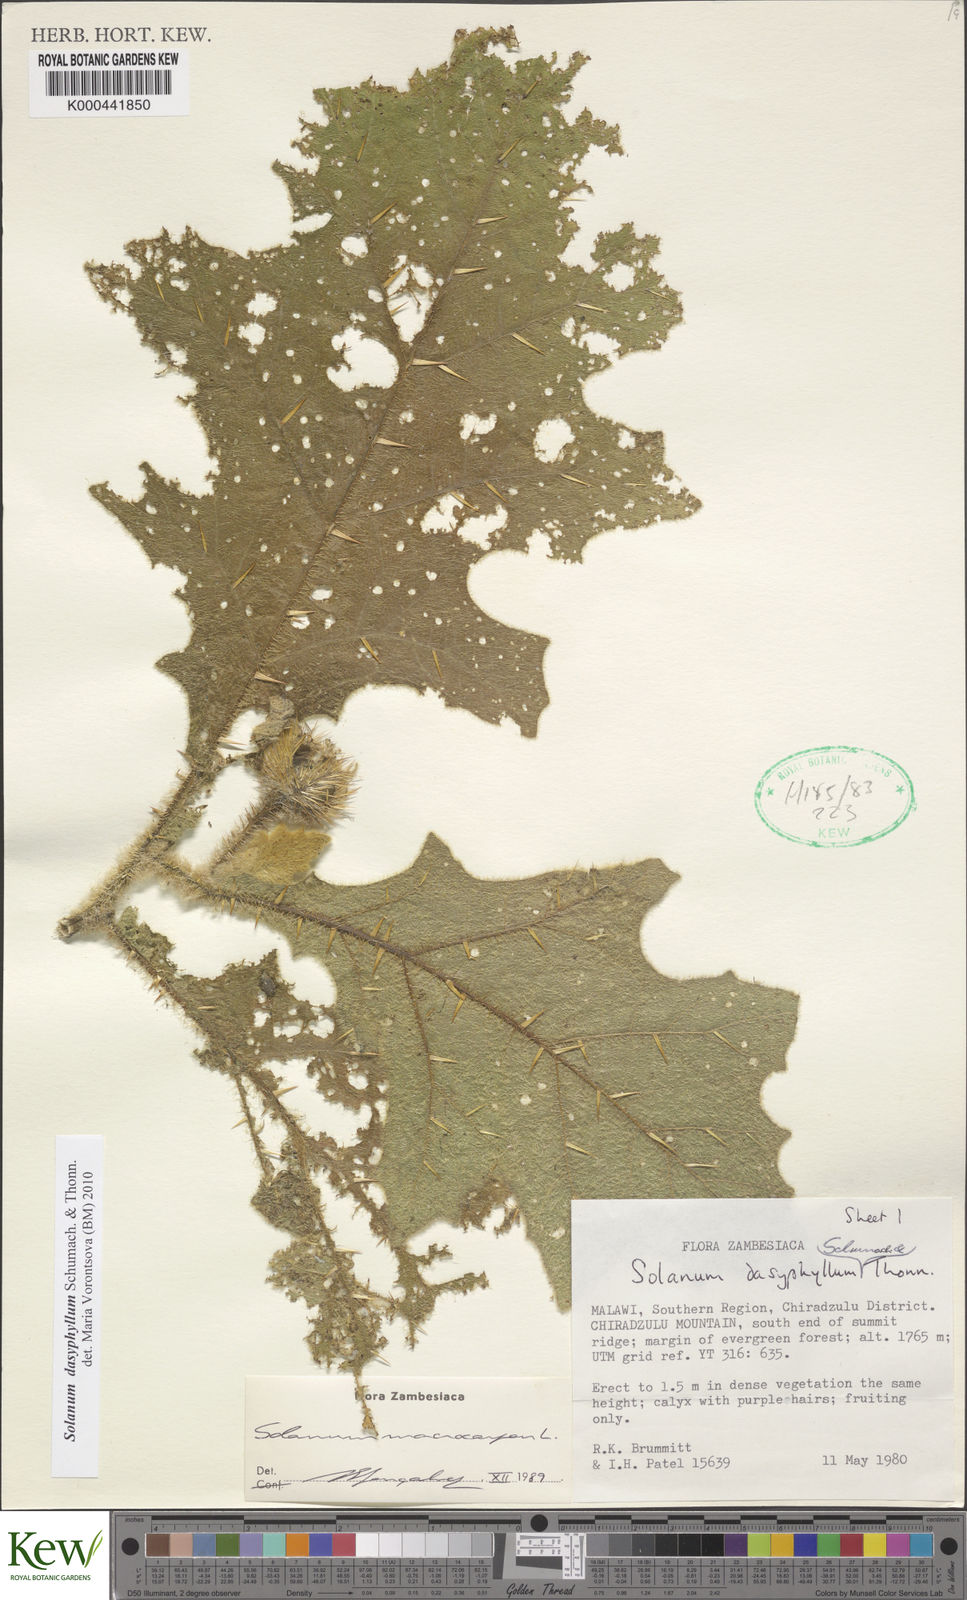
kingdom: Plantae
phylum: Tracheophyta
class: Magnoliopsida
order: Solanales
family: Solanaceae
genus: Solanum
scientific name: Solanum dasyphyllum
